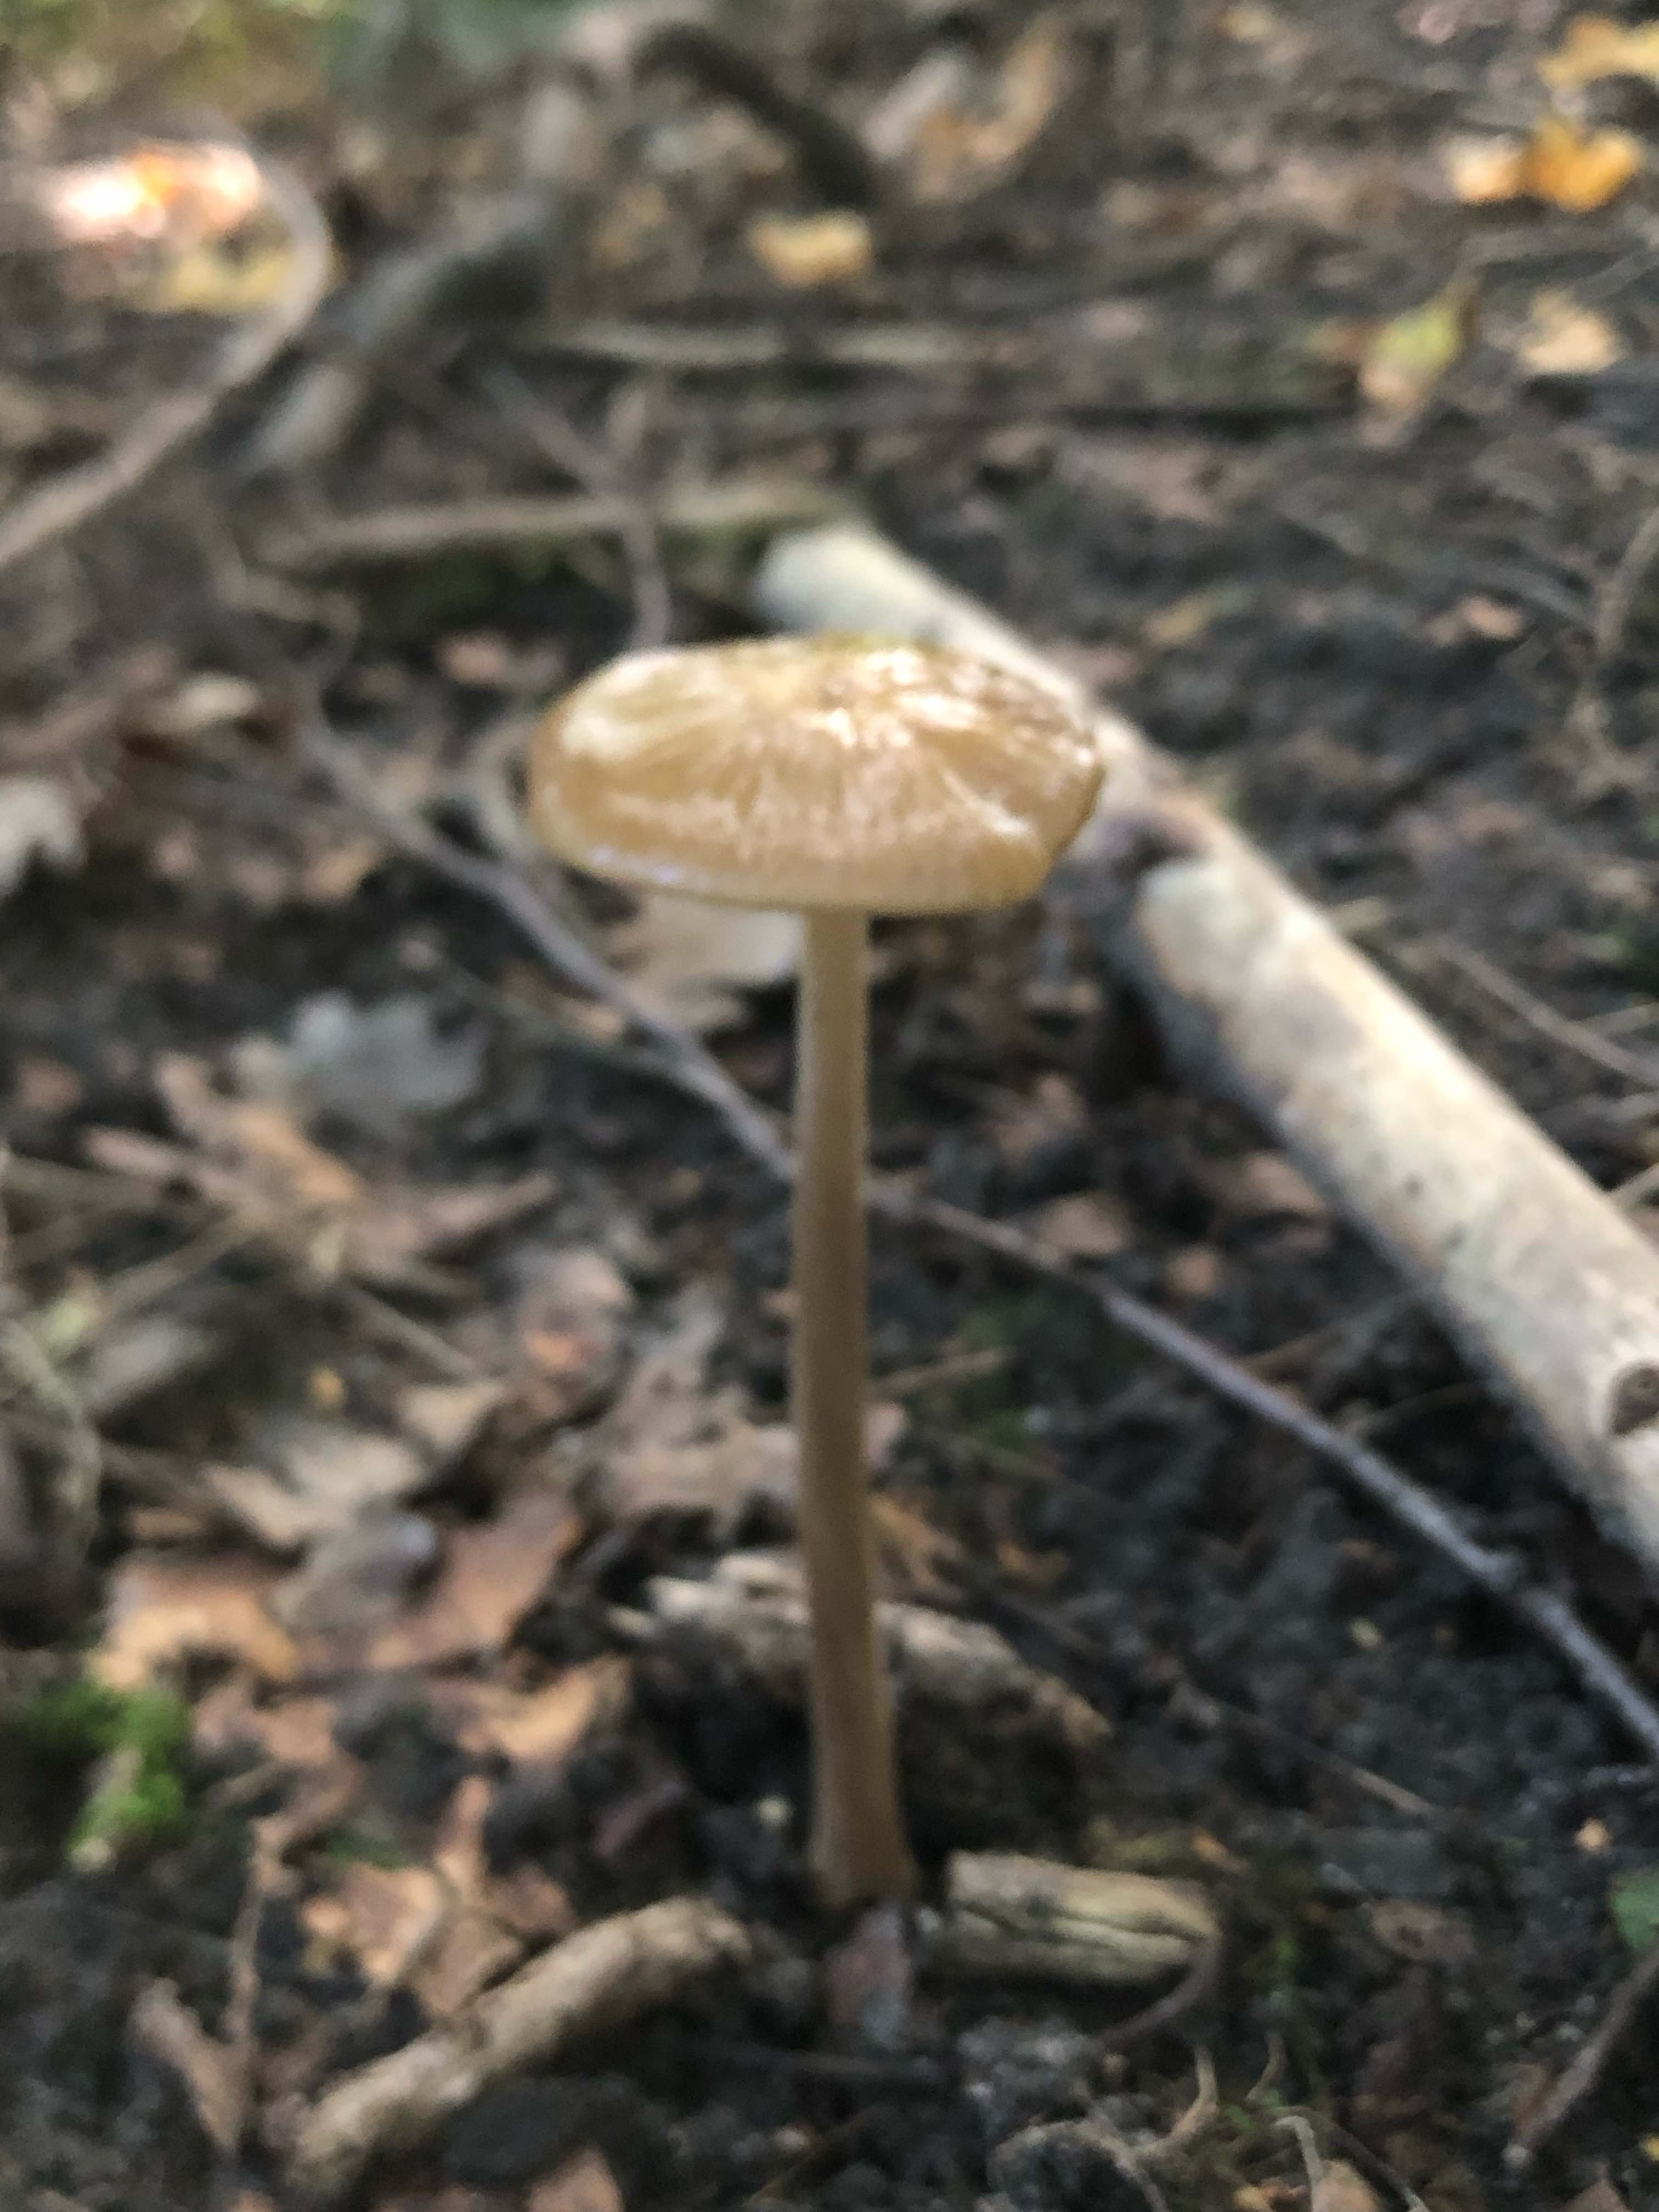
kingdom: Fungi
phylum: Basidiomycota
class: Agaricomycetes
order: Agaricales
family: Physalacriaceae
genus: Hymenopellis
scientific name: Hymenopellis radicata
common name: almindelig pælerodshat
